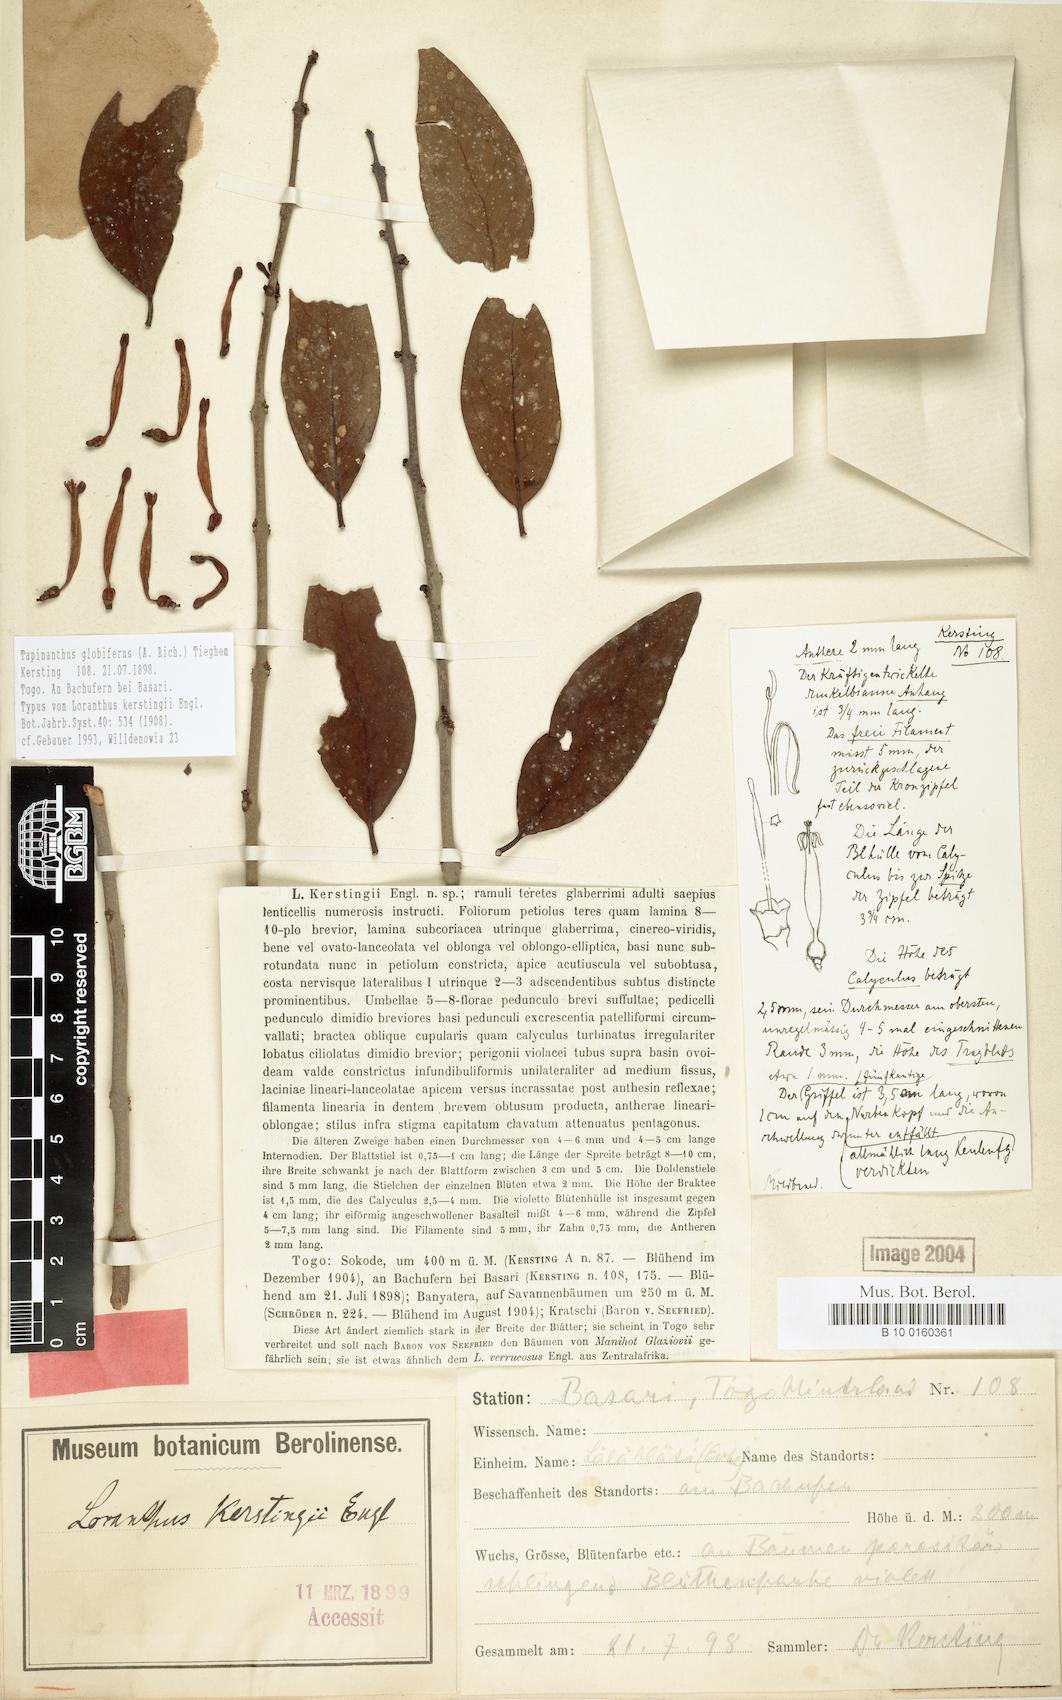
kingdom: Plantae
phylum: Tracheophyta
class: Magnoliopsida
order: Santalales
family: Loranthaceae
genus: Tapinanthus
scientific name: Tapinanthus globiferus
